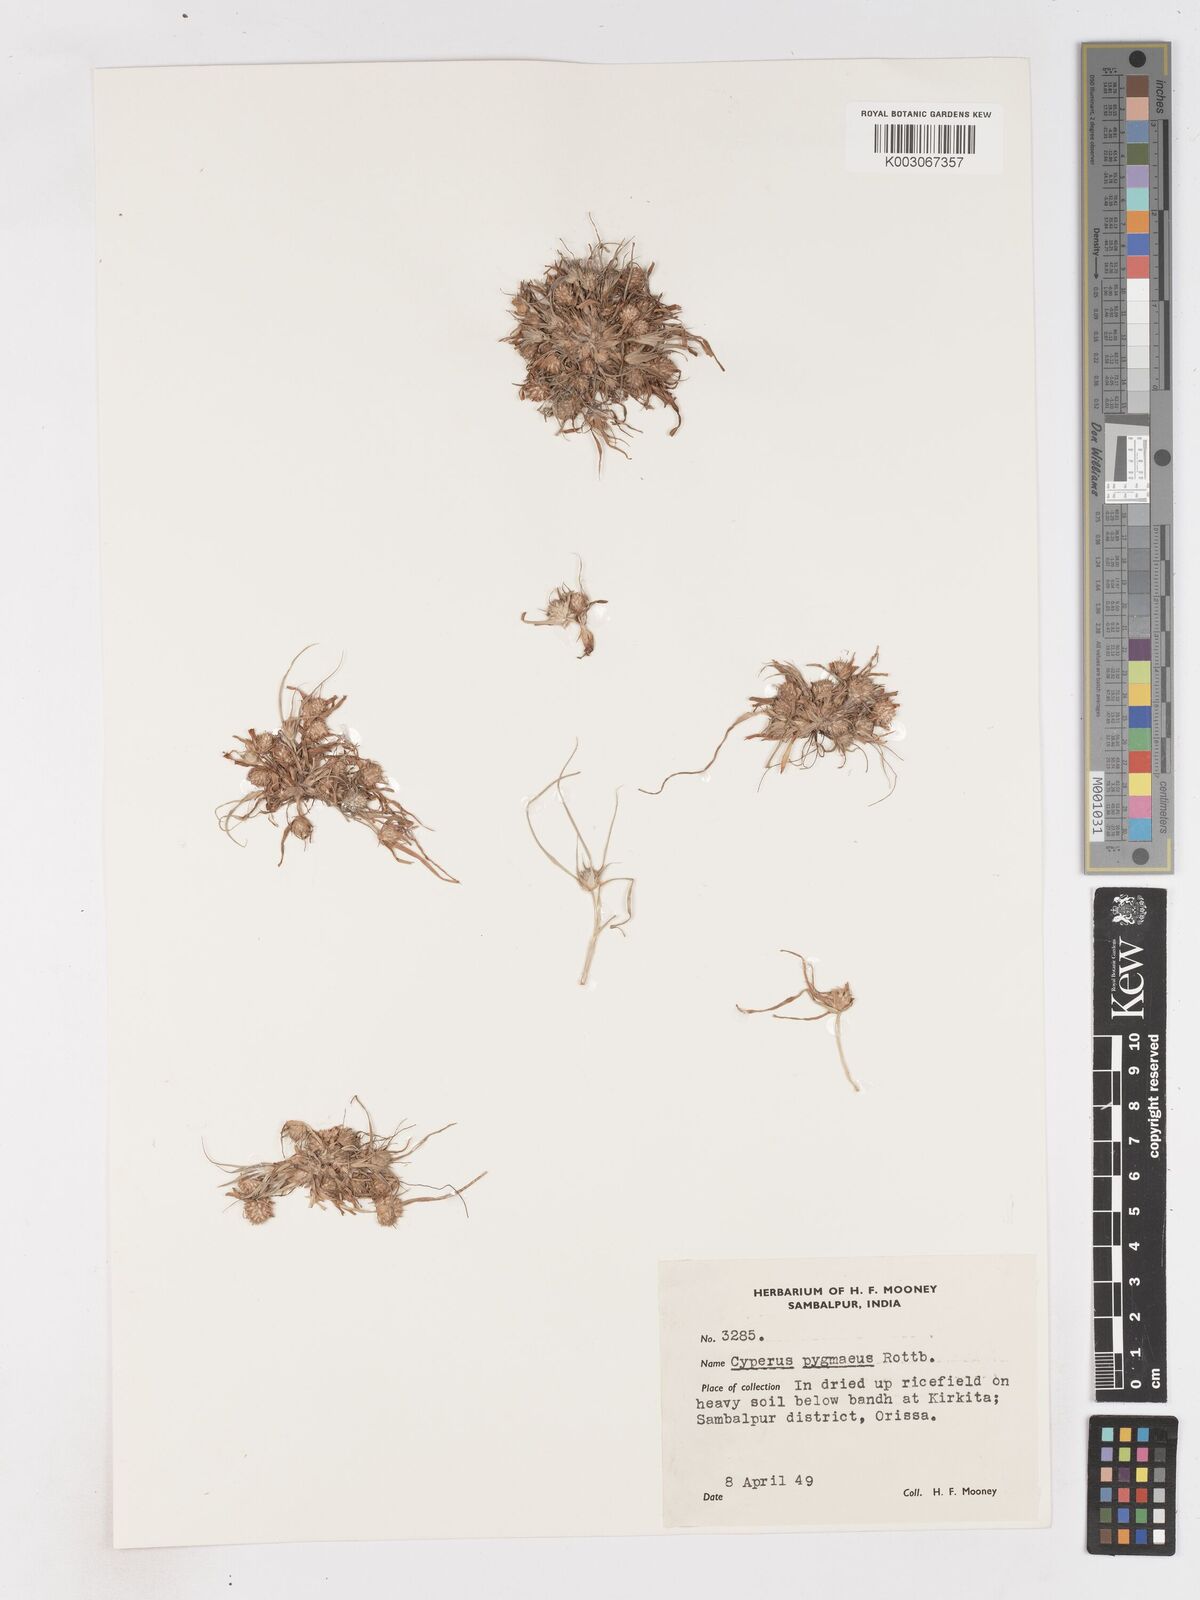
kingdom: Plantae
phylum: Tracheophyta
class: Liliopsida
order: Poales
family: Cyperaceae
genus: Cyperus
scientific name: Cyperus michelianus
